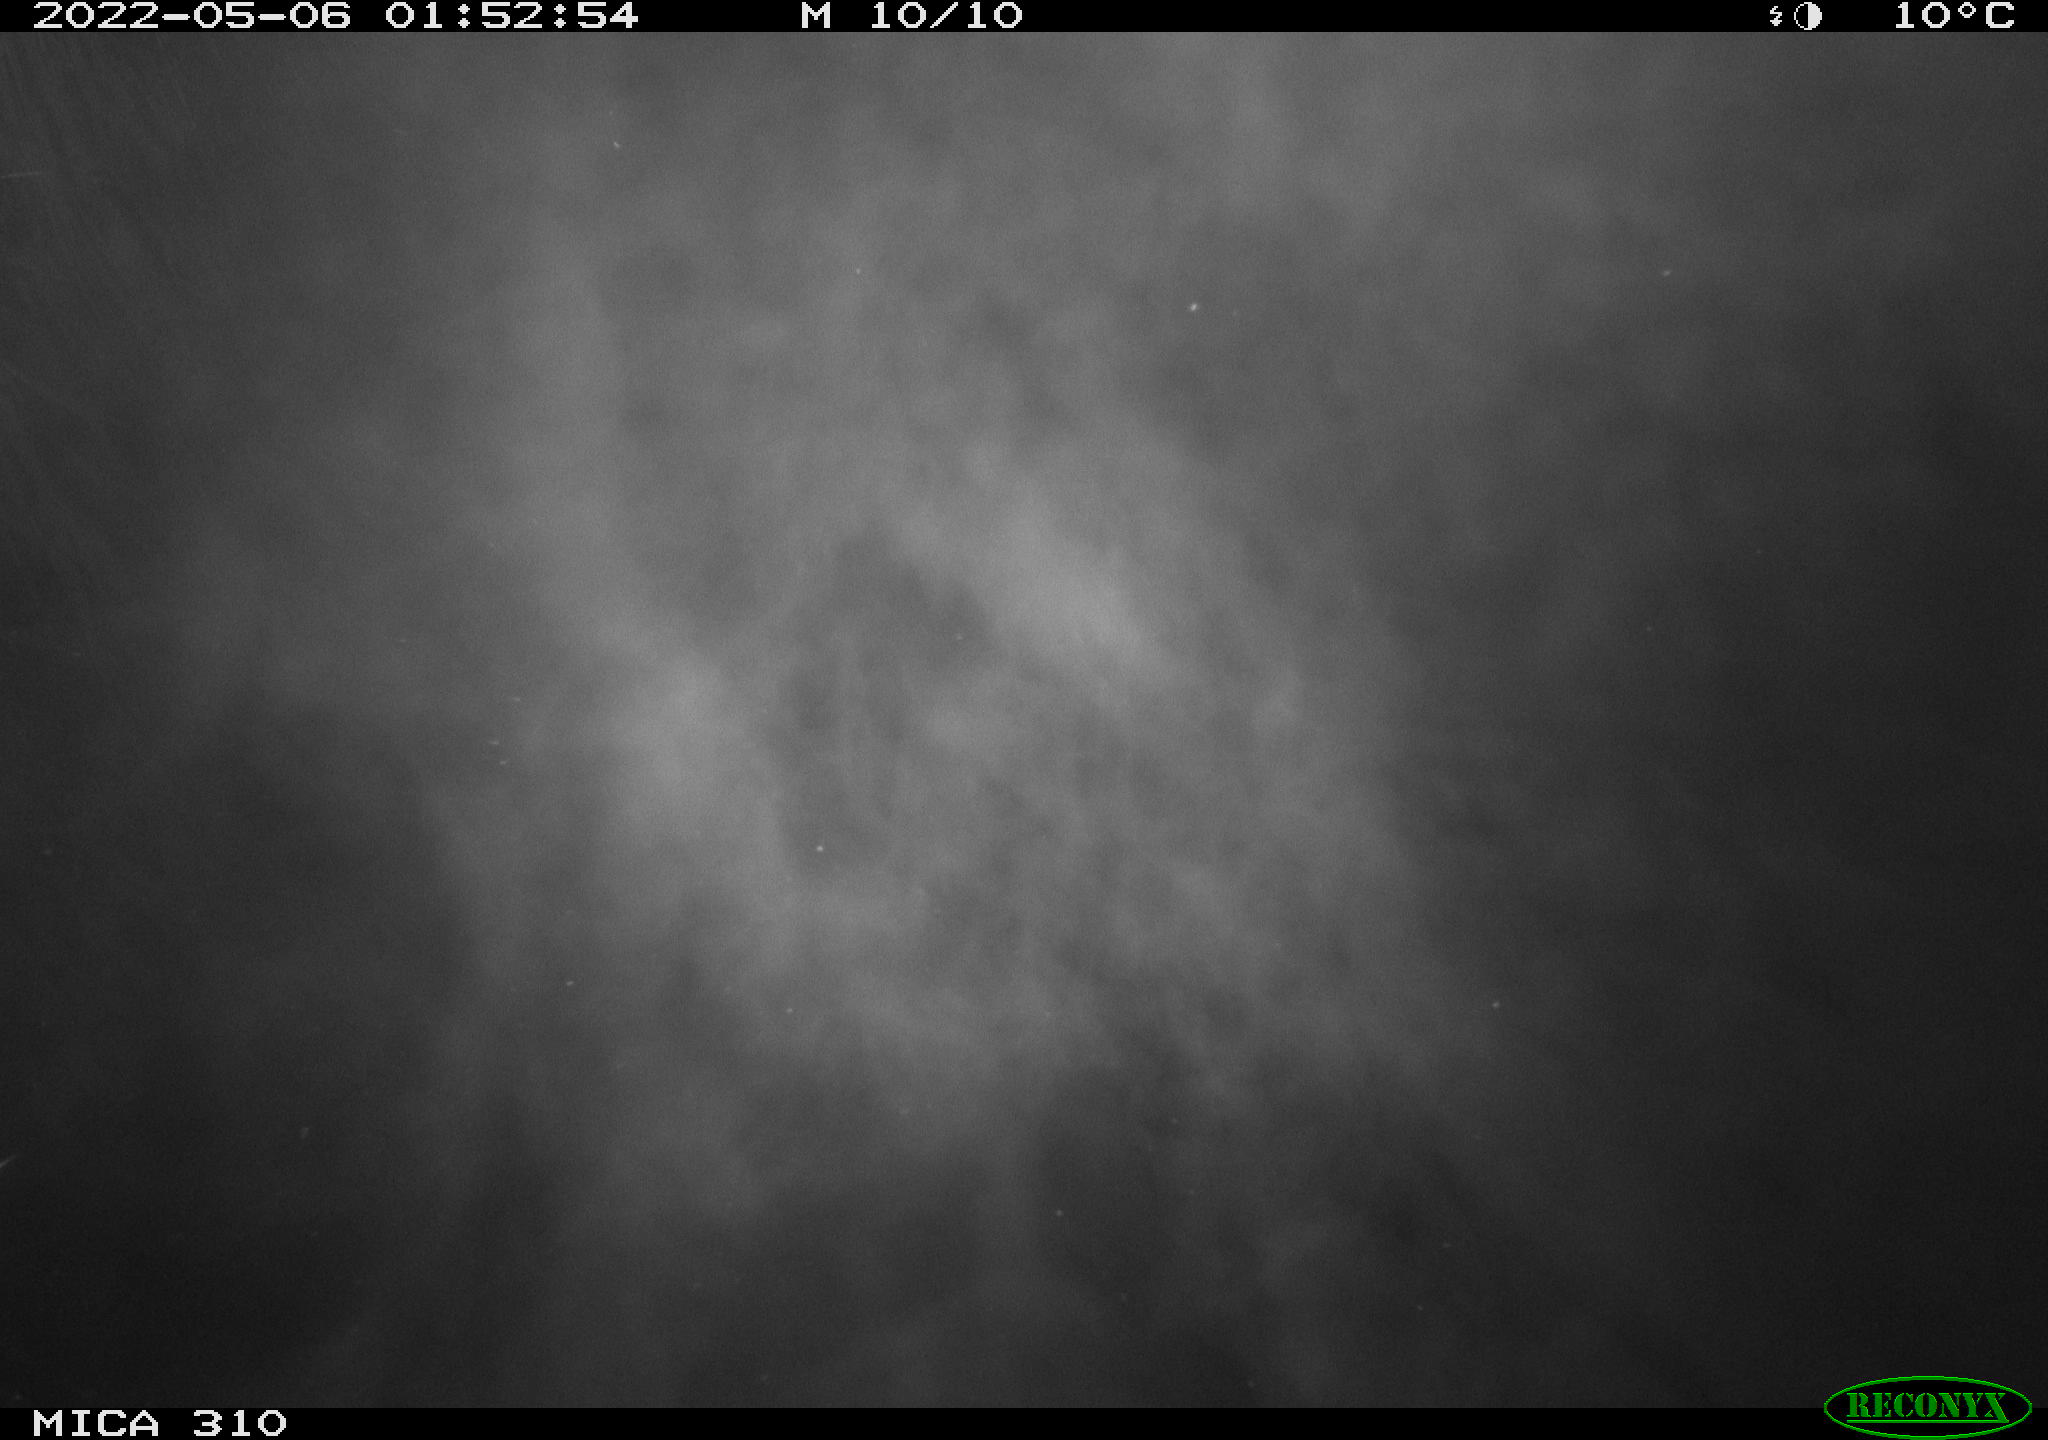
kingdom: Animalia
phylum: Chordata
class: Aves
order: Anseriformes
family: Anatidae
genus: Anas
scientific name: Anas platyrhynchos
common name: Mallard
